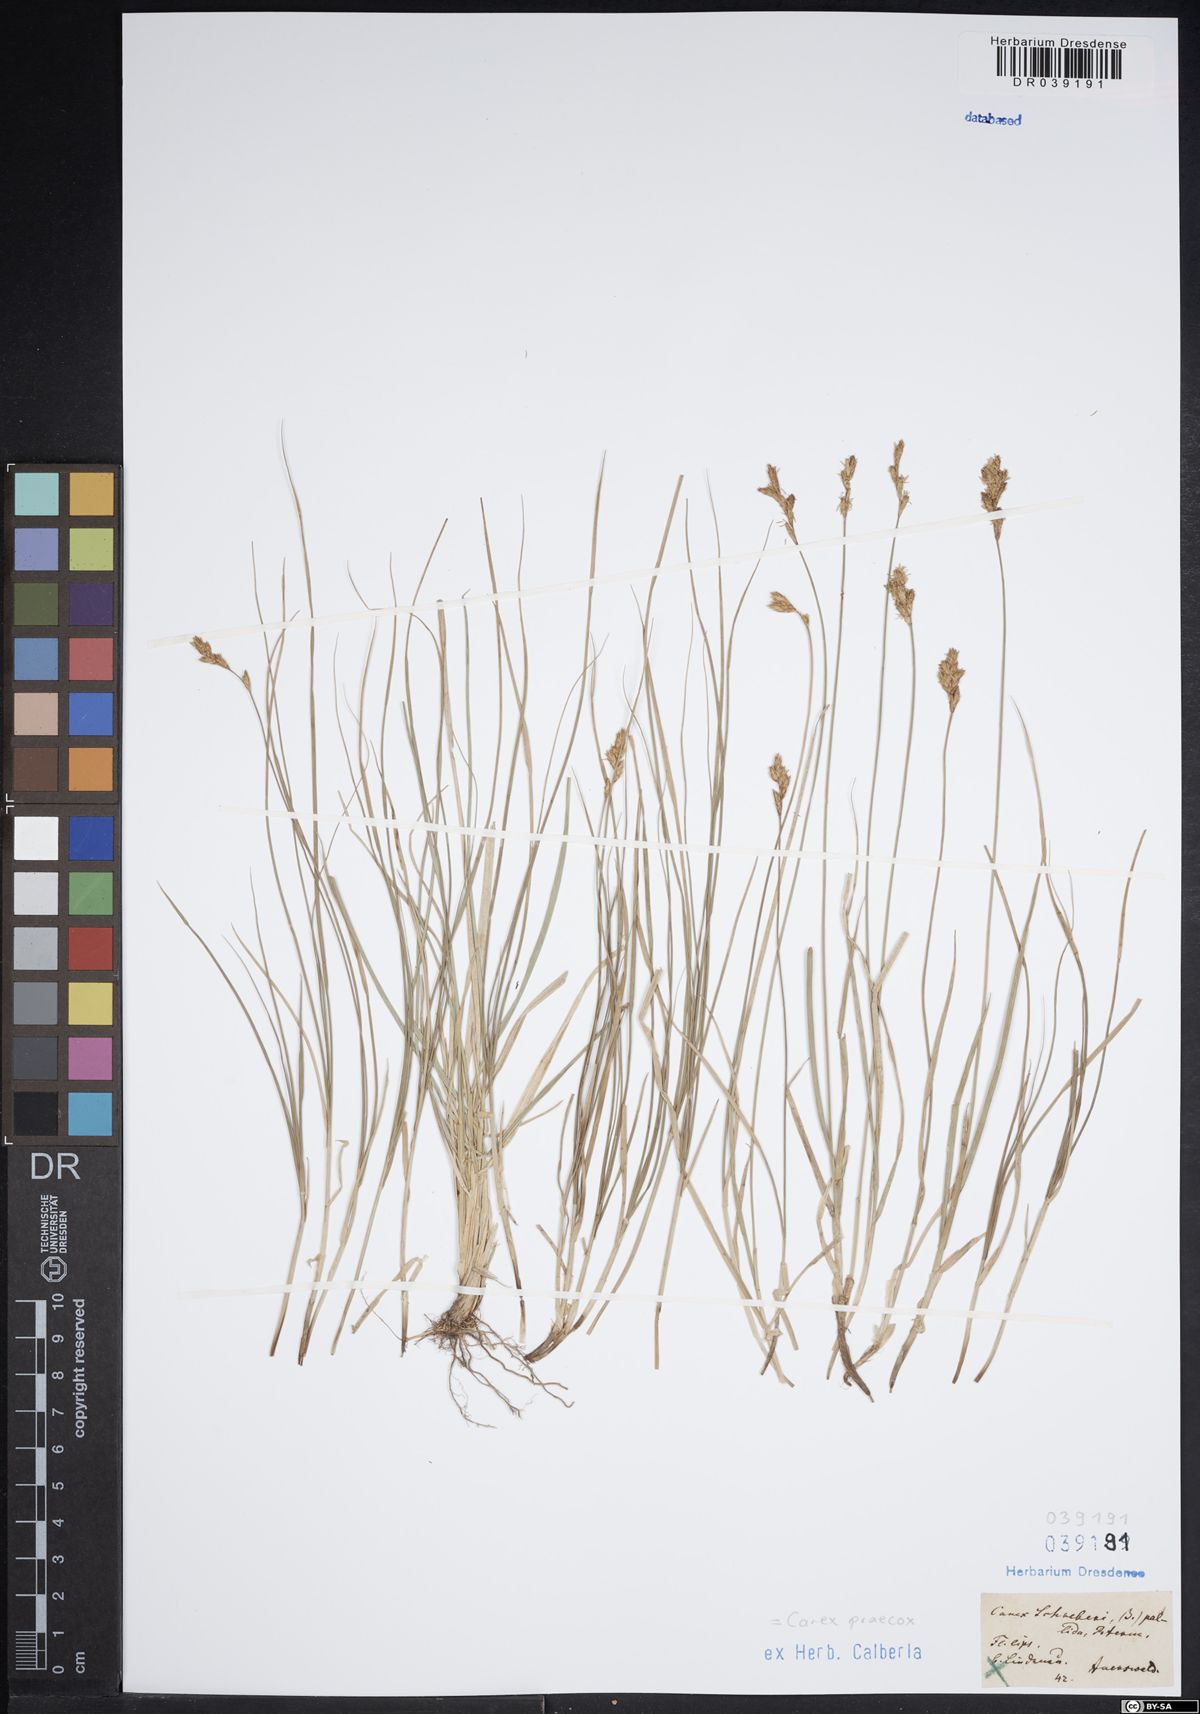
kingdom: Plantae
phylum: Tracheophyta
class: Liliopsida
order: Poales
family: Cyperaceae
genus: Carex
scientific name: Carex praecox
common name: Early sedge
